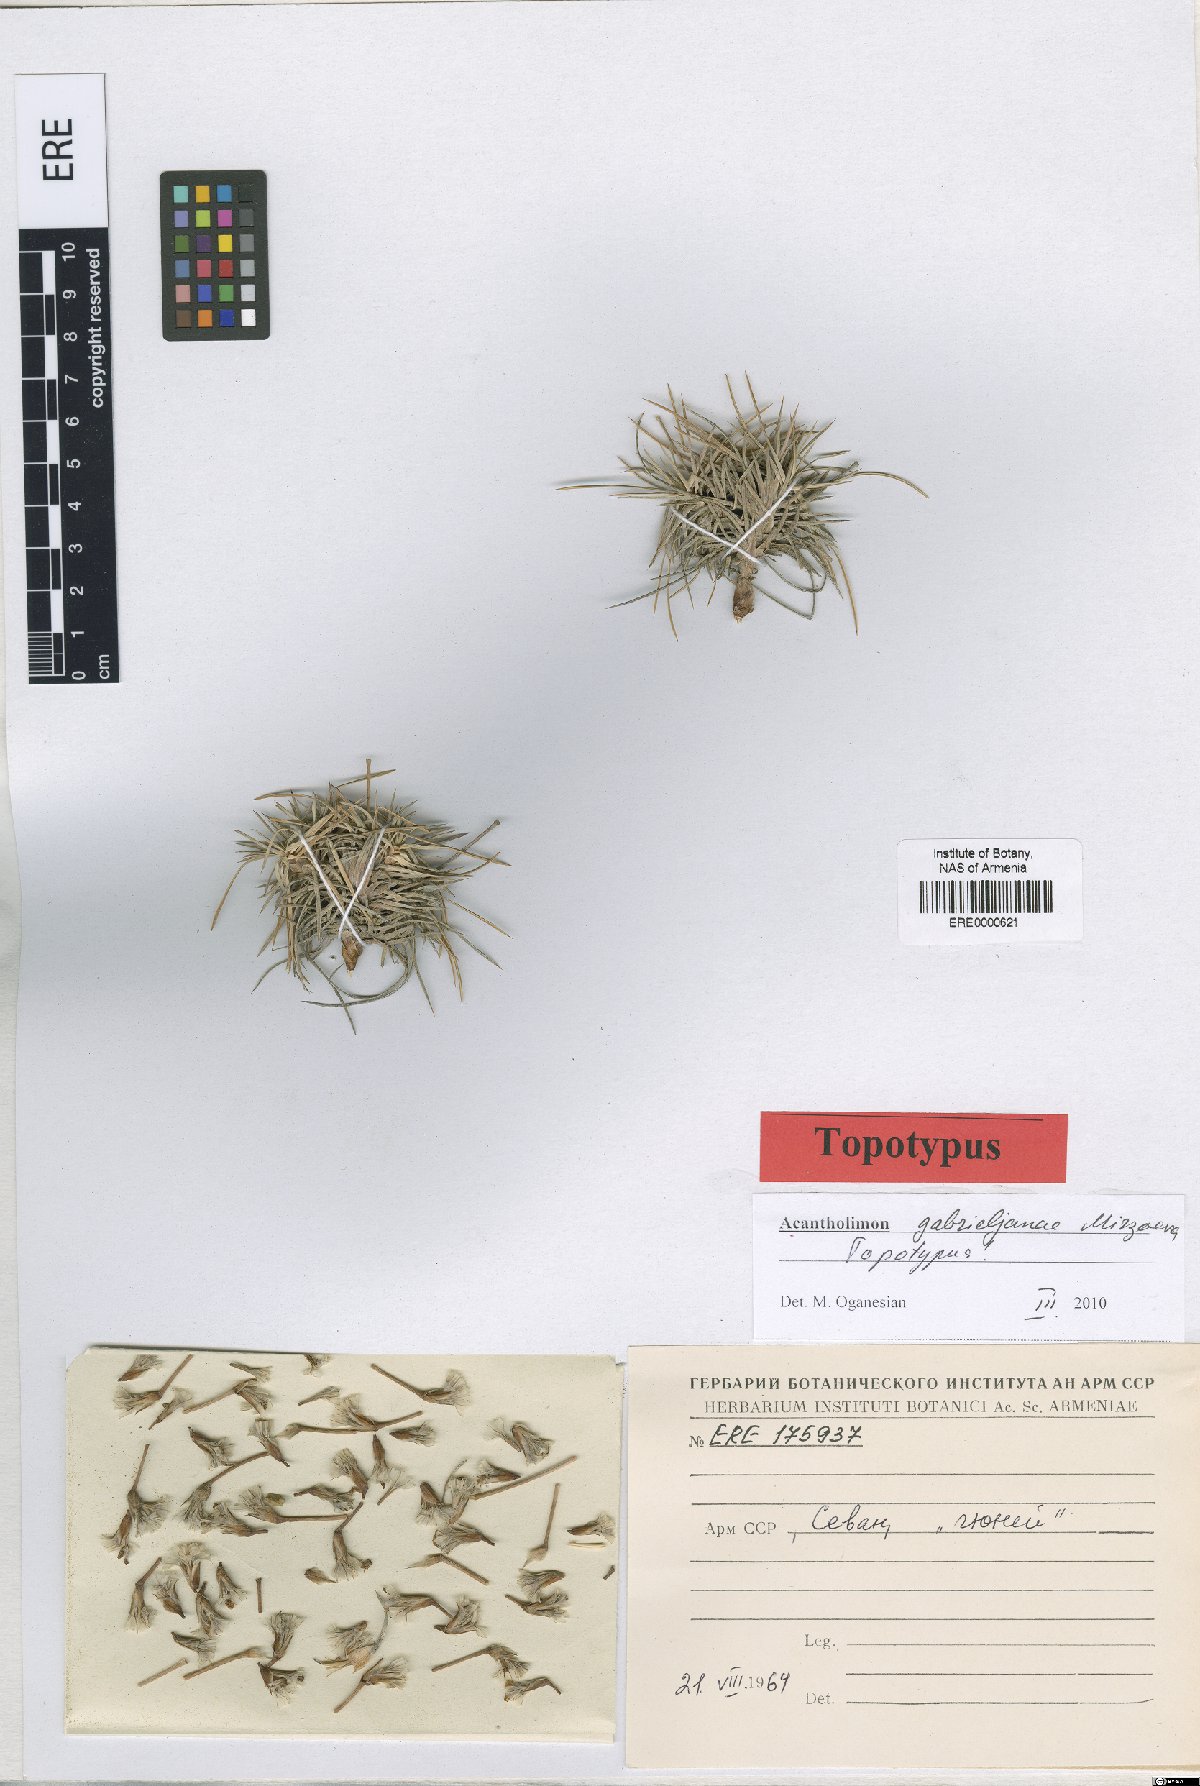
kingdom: Plantae
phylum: Tracheophyta
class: Magnoliopsida
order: Caryophyllales
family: Plumbaginaceae
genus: Acantholimon
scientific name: Acantholimon gabrieljaniae
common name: Gabrielyan's prickly-thrift
